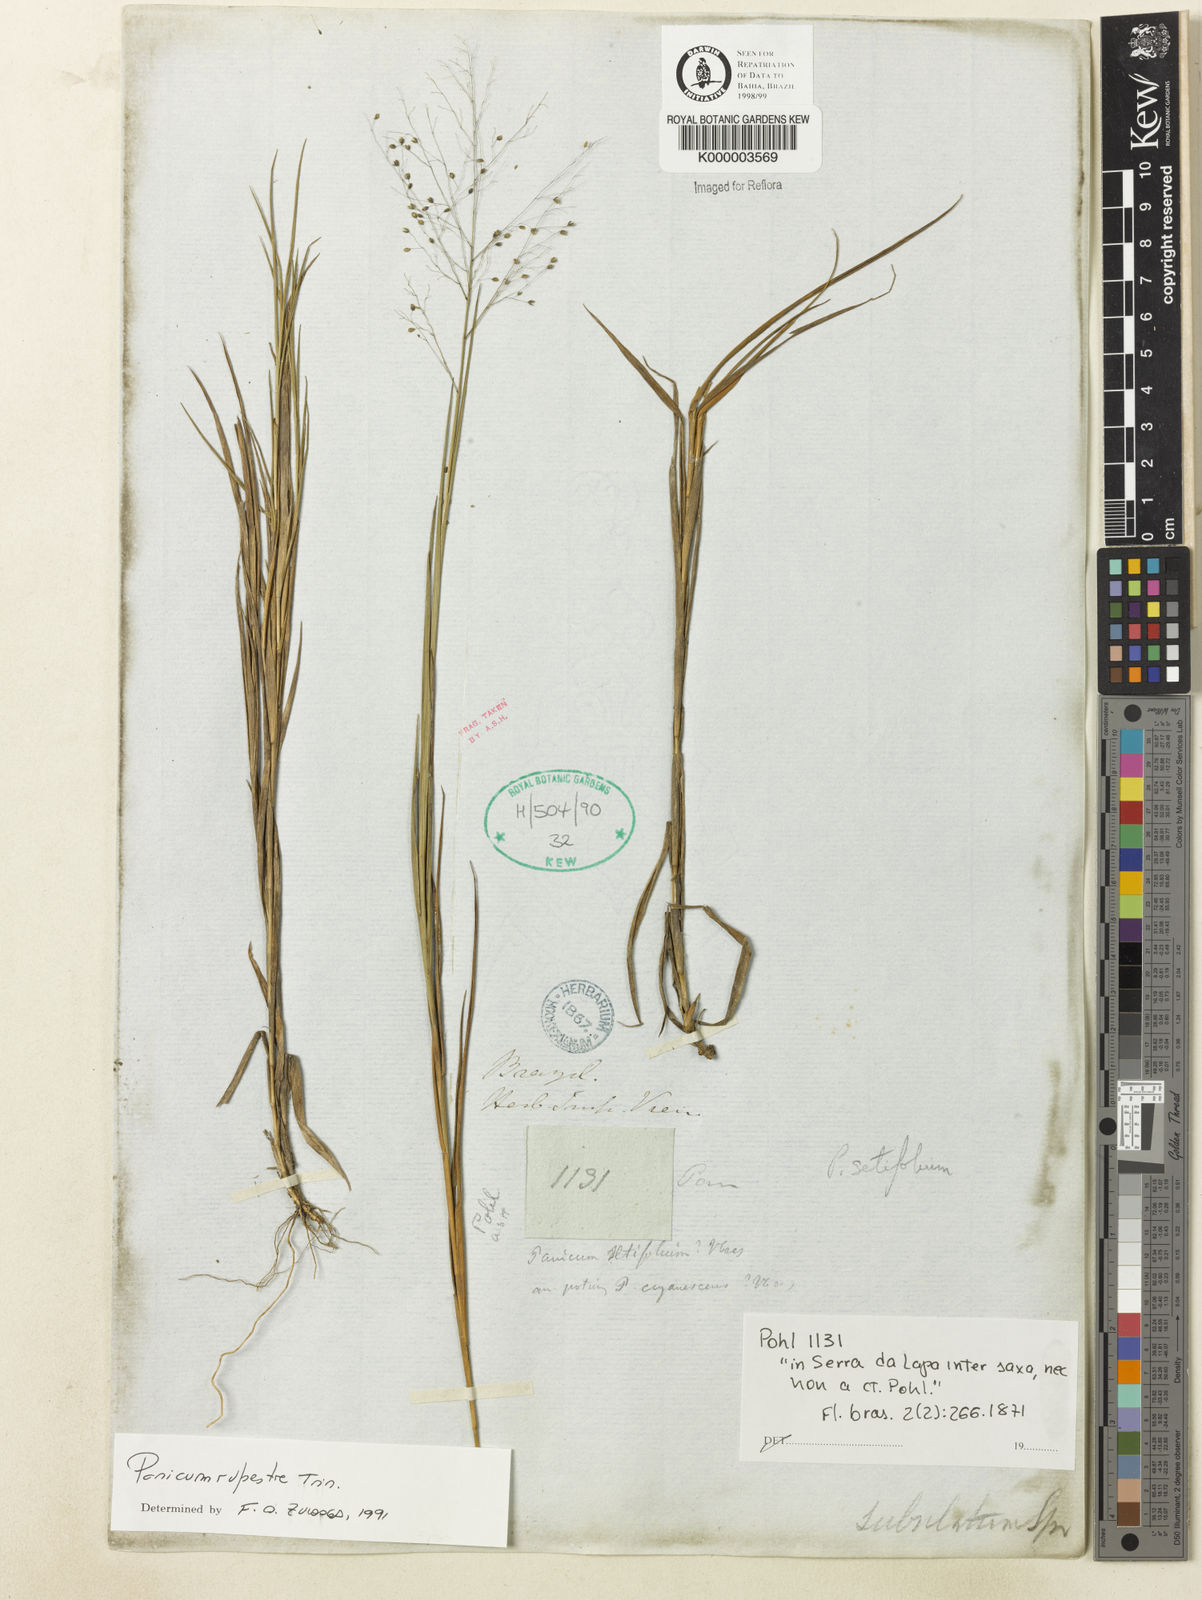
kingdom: Plantae
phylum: Tracheophyta
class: Liliopsida
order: Poales
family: Poaceae
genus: Panicum
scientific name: Panicum rupestre
